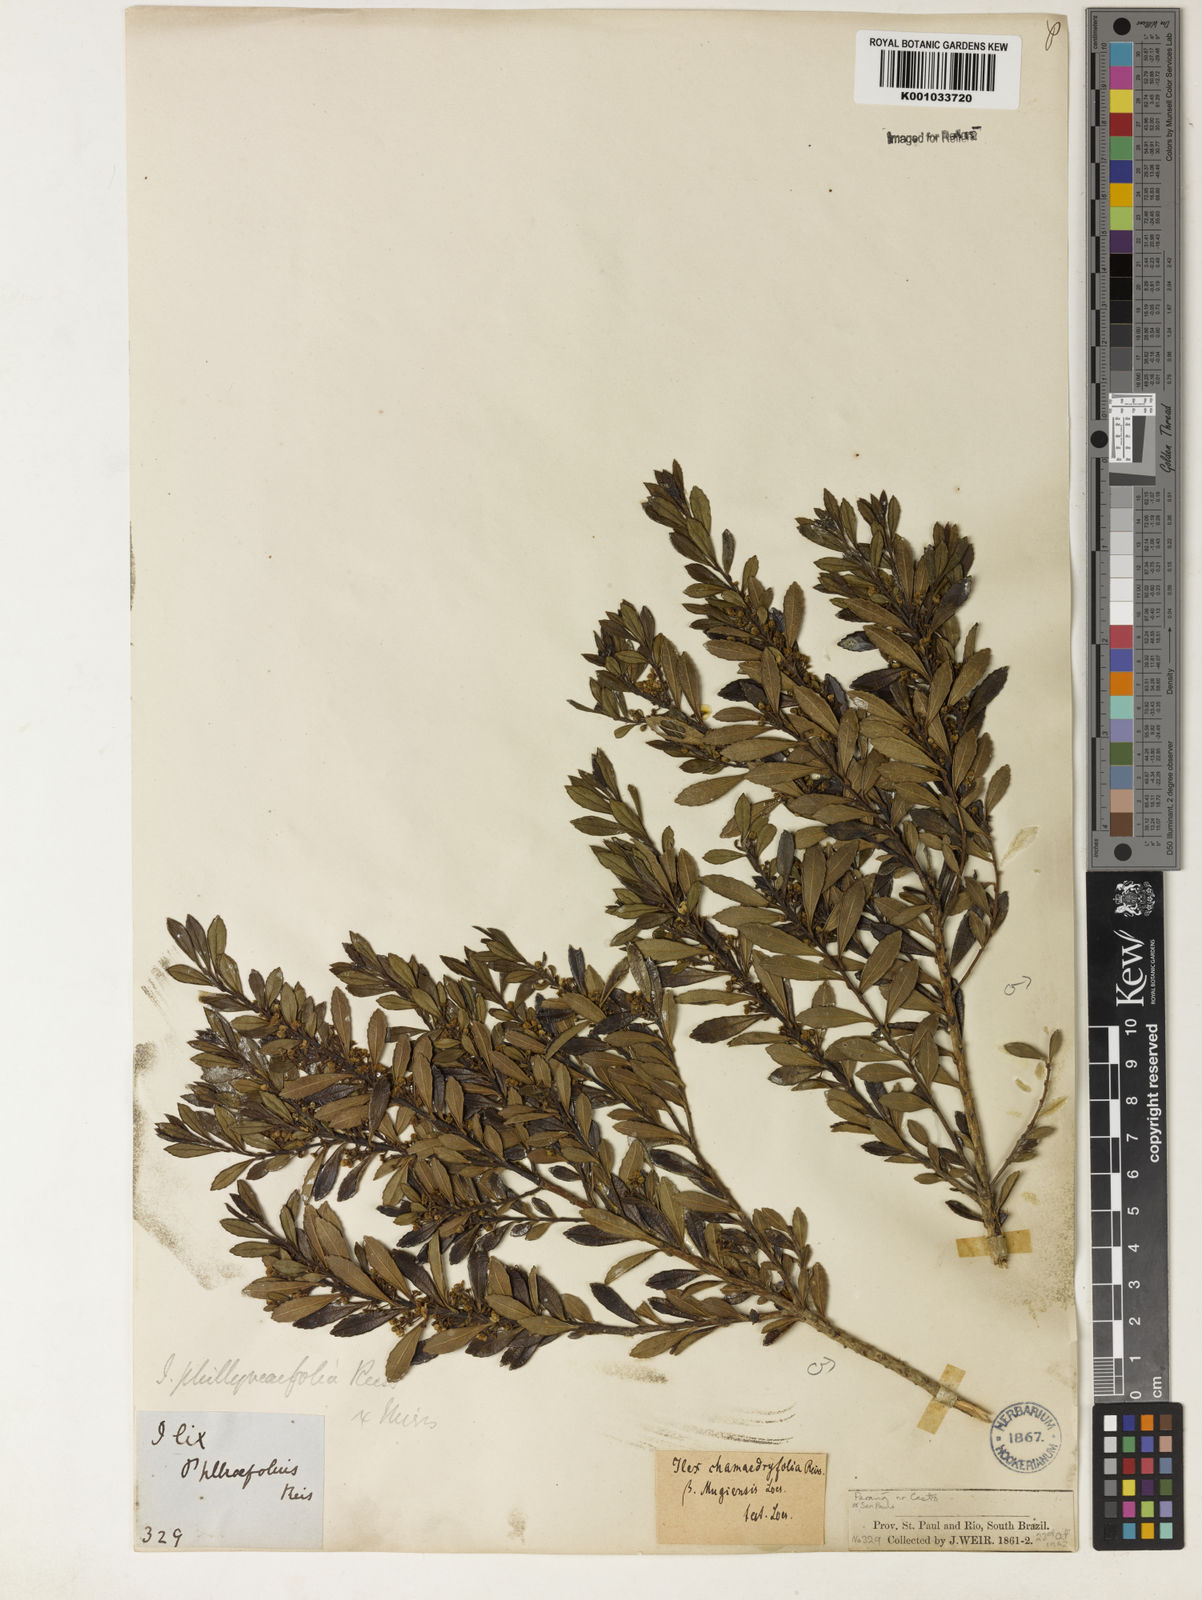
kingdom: Plantae
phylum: Tracheophyta
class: Magnoliopsida
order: Aquifoliales
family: Aquifoliaceae
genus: Ilex
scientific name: Ilex chamaedryfolia
